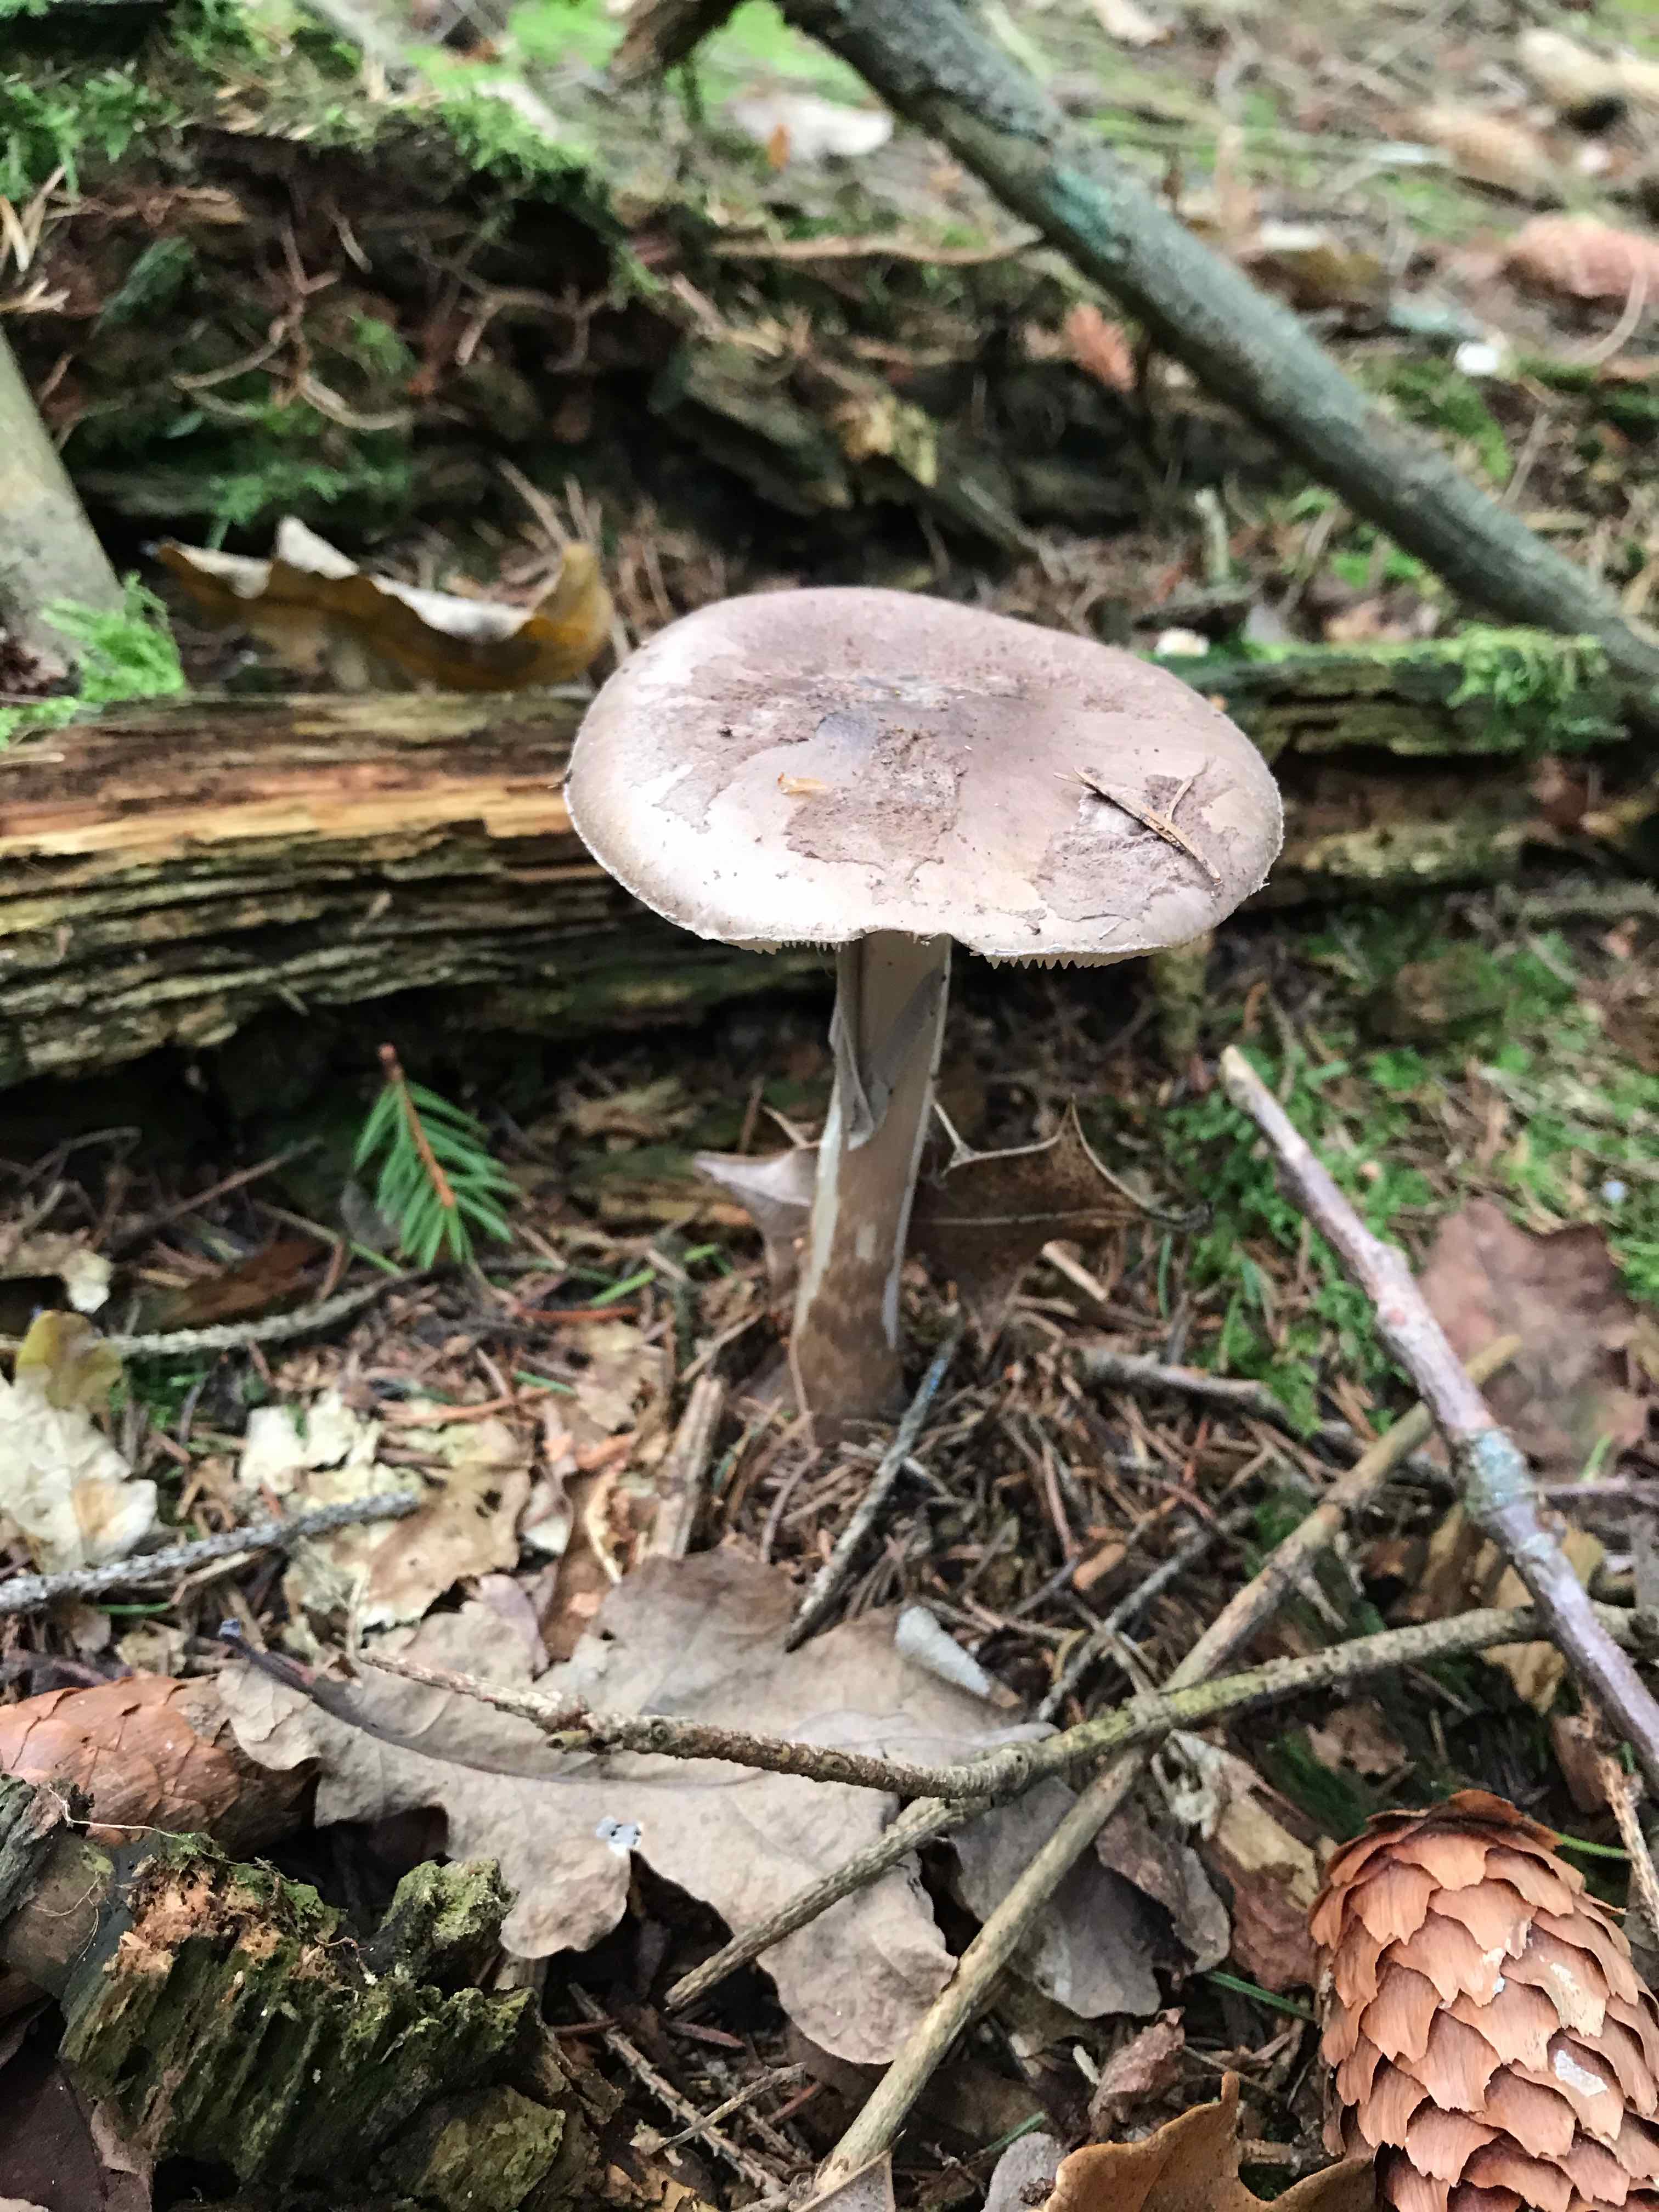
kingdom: Fungi
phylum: Basidiomycota
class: Agaricomycetes
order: Agaricales
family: Amanitaceae
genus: Amanita
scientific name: Amanita porphyria
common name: porfyr-fluesvamp
